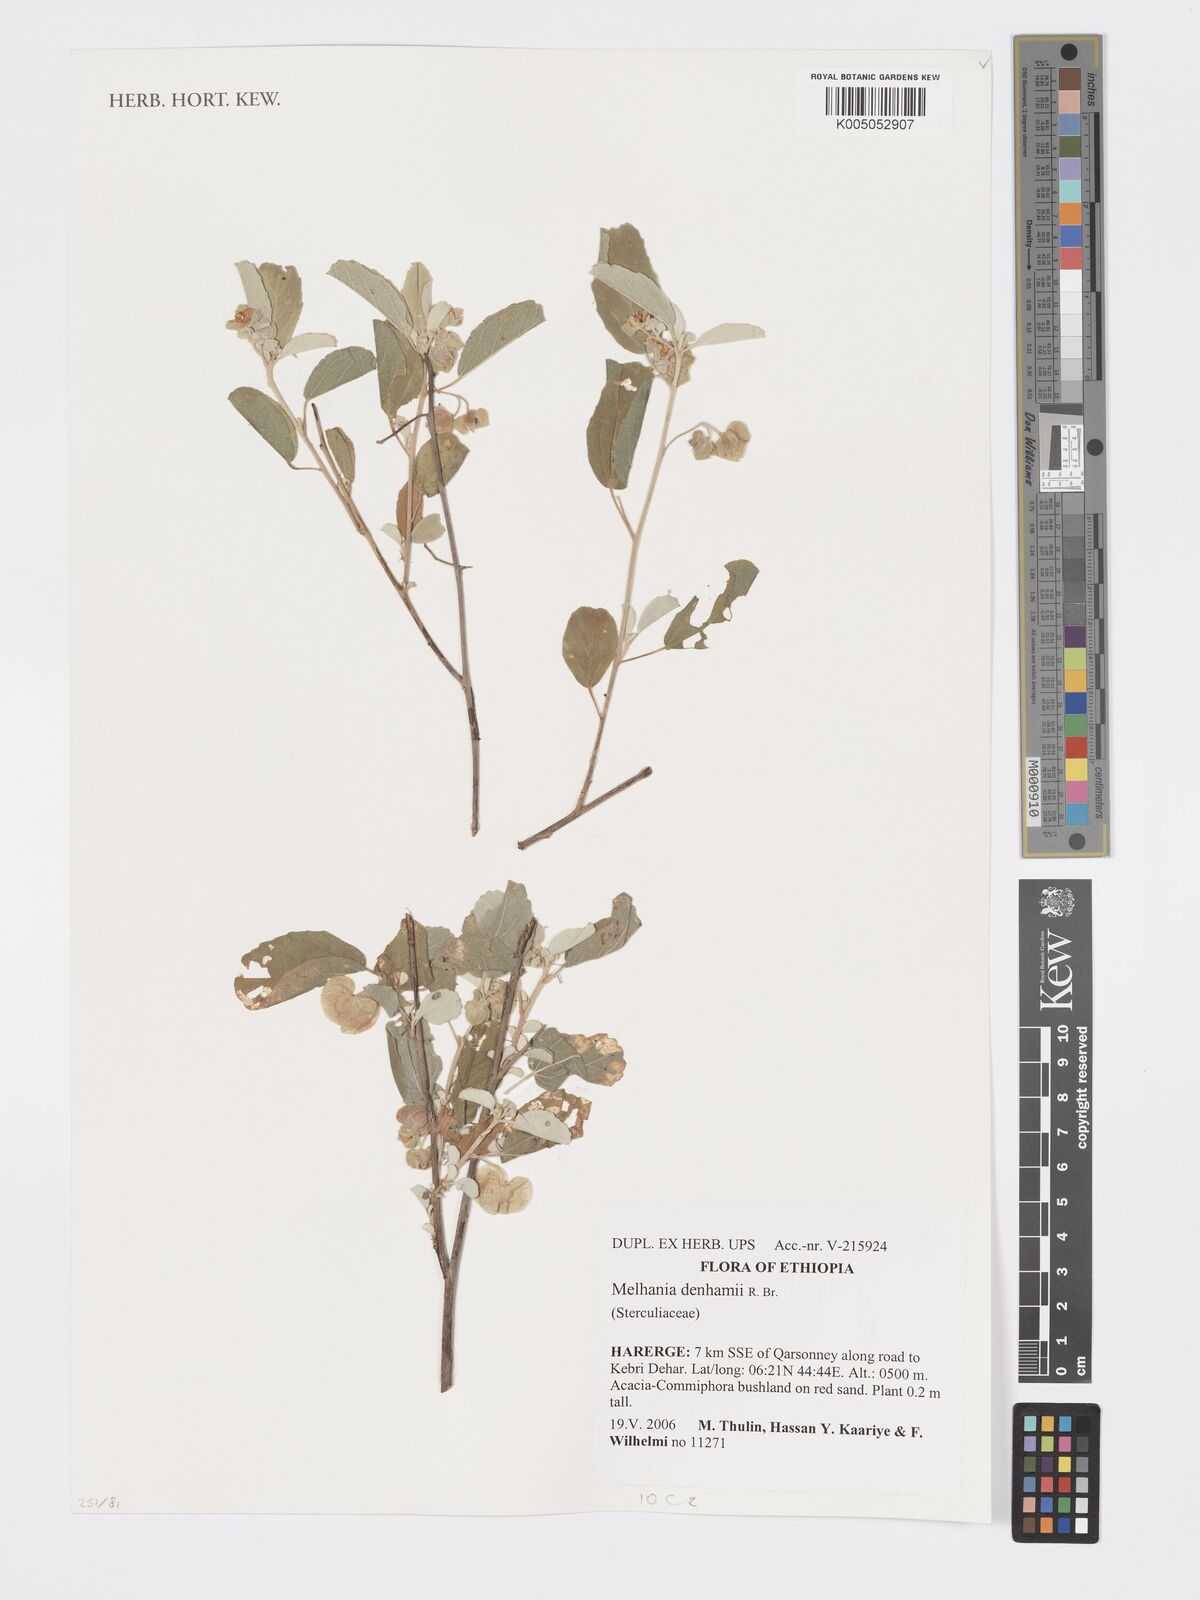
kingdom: Plantae
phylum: Tracheophyta
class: Magnoliopsida
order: Malvales
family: Malvaceae
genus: Melhania
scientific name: Melhania denhamii
